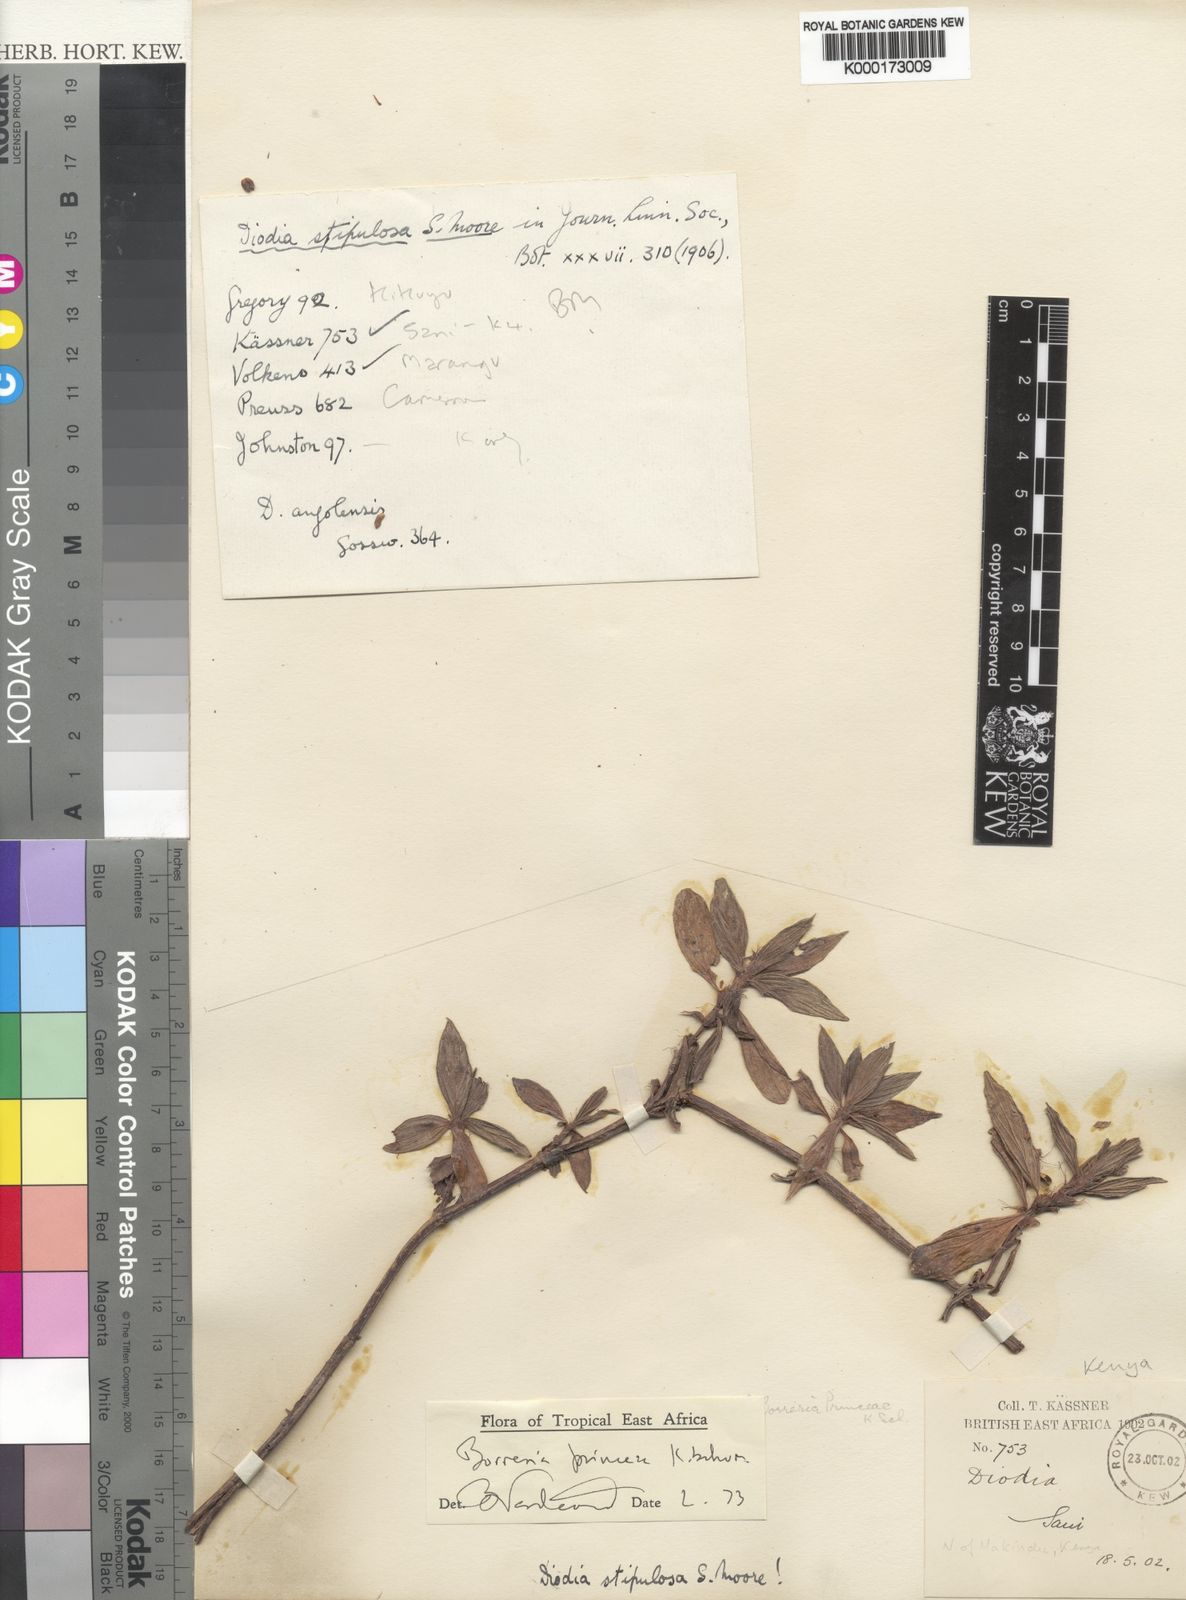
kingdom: Plantae
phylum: Tracheophyta
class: Magnoliopsida
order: Gentianales
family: Rubiaceae
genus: Spermacoce
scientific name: Spermacoce princeae
